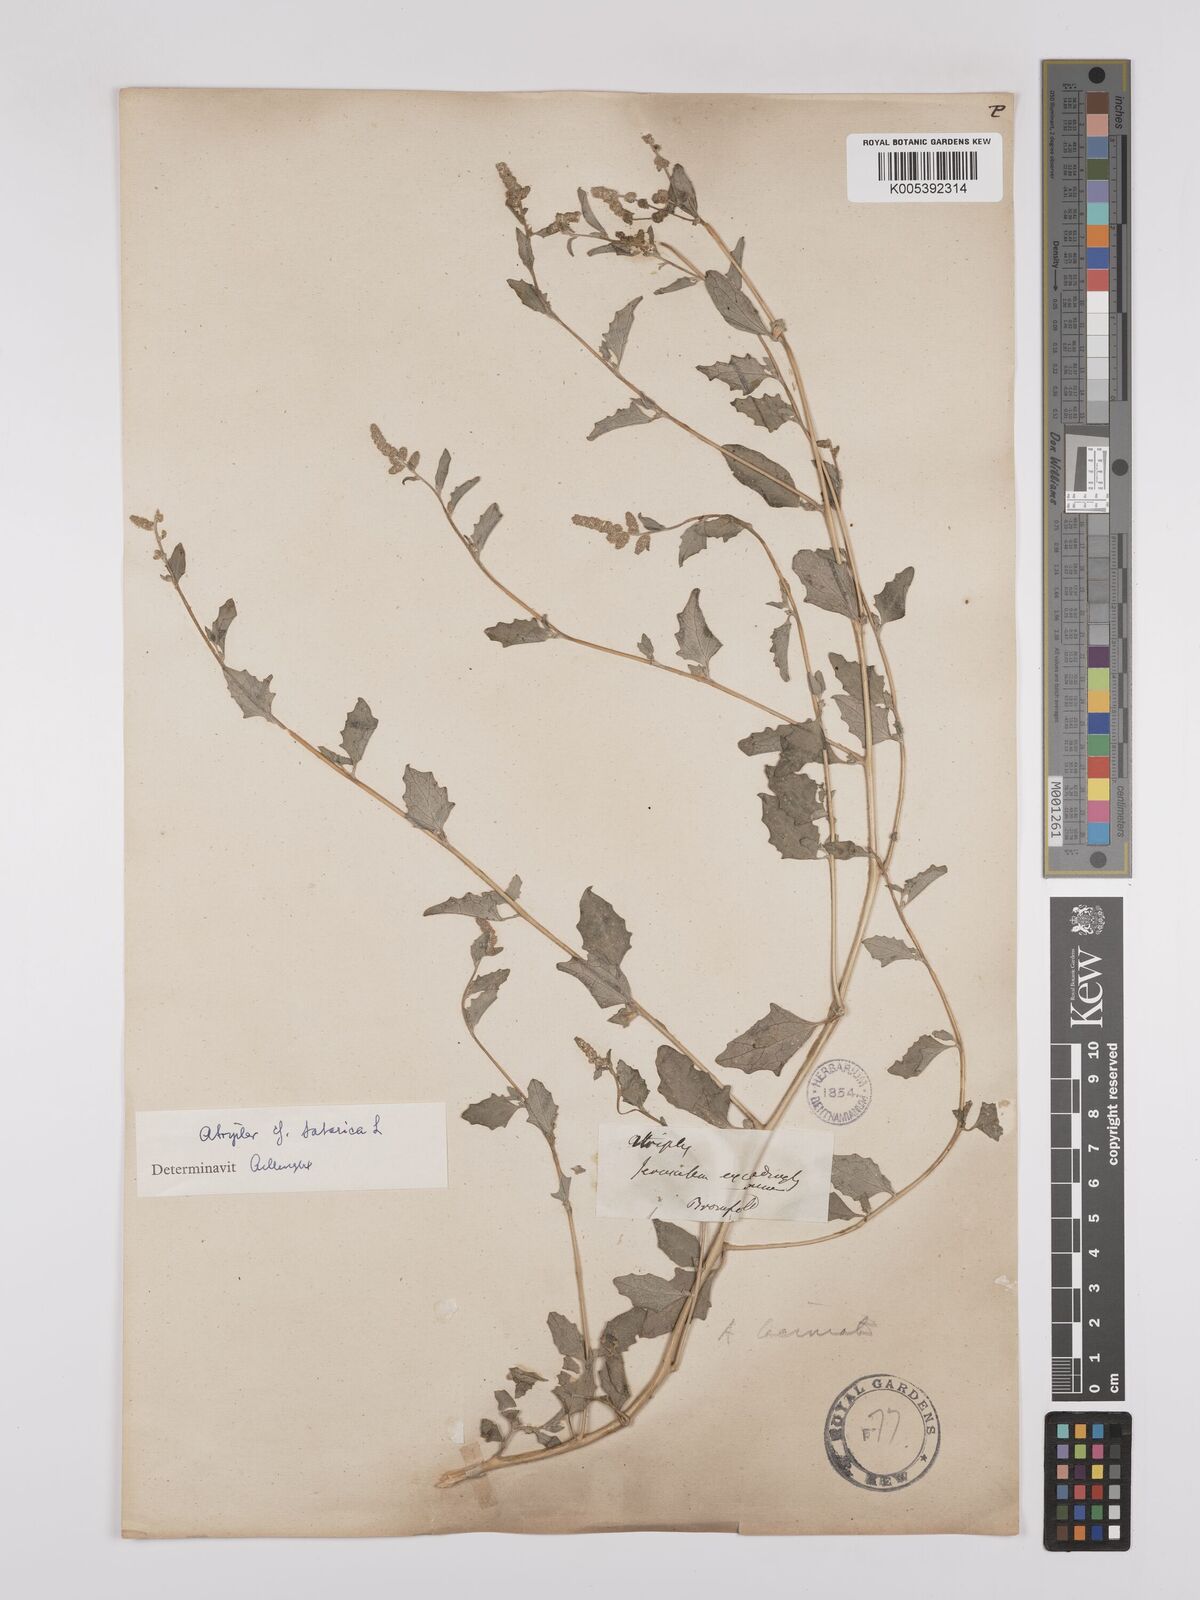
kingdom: Plantae
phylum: Tracheophyta
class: Magnoliopsida
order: Caryophyllales
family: Amaranthaceae
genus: Atriplex
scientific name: Atriplex
